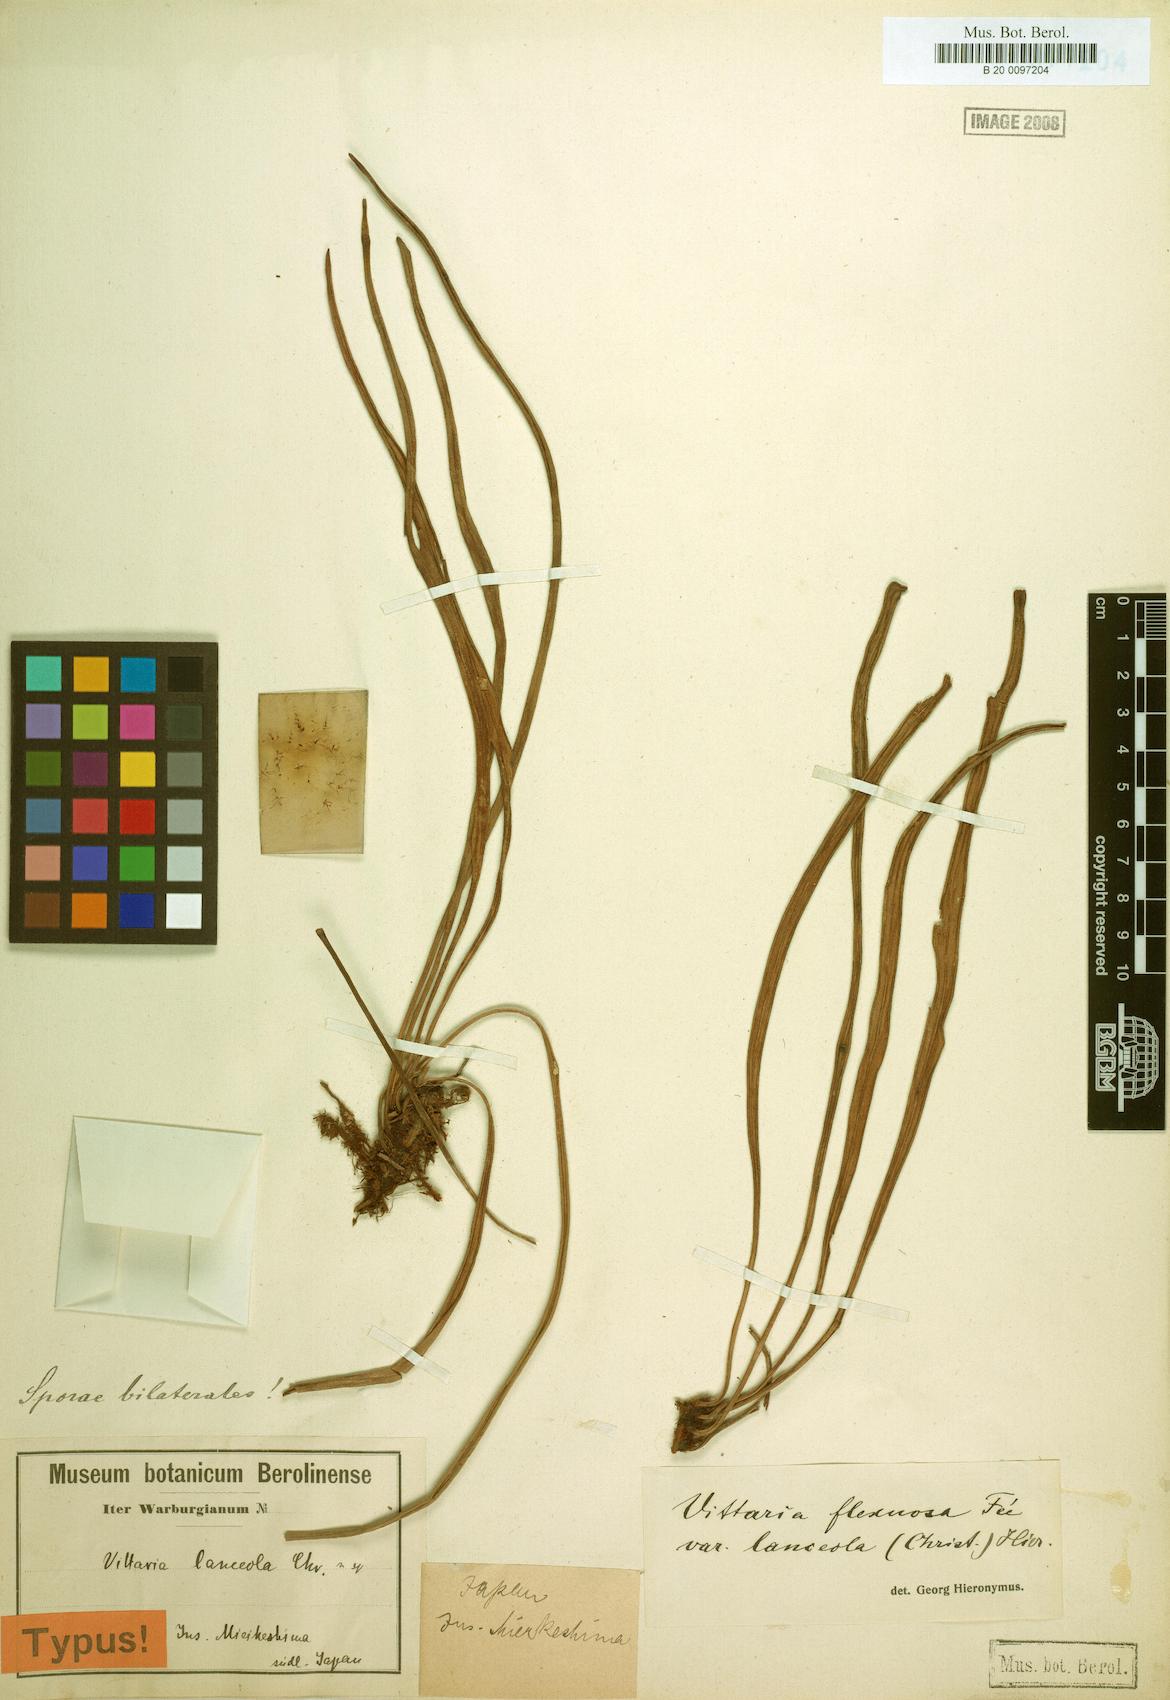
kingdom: Plantae
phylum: Tracheophyta
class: Polypodiopsida
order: Polypodiales
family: Pteridaceae
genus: Haplopteris
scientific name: Haplopteris flexuosa
